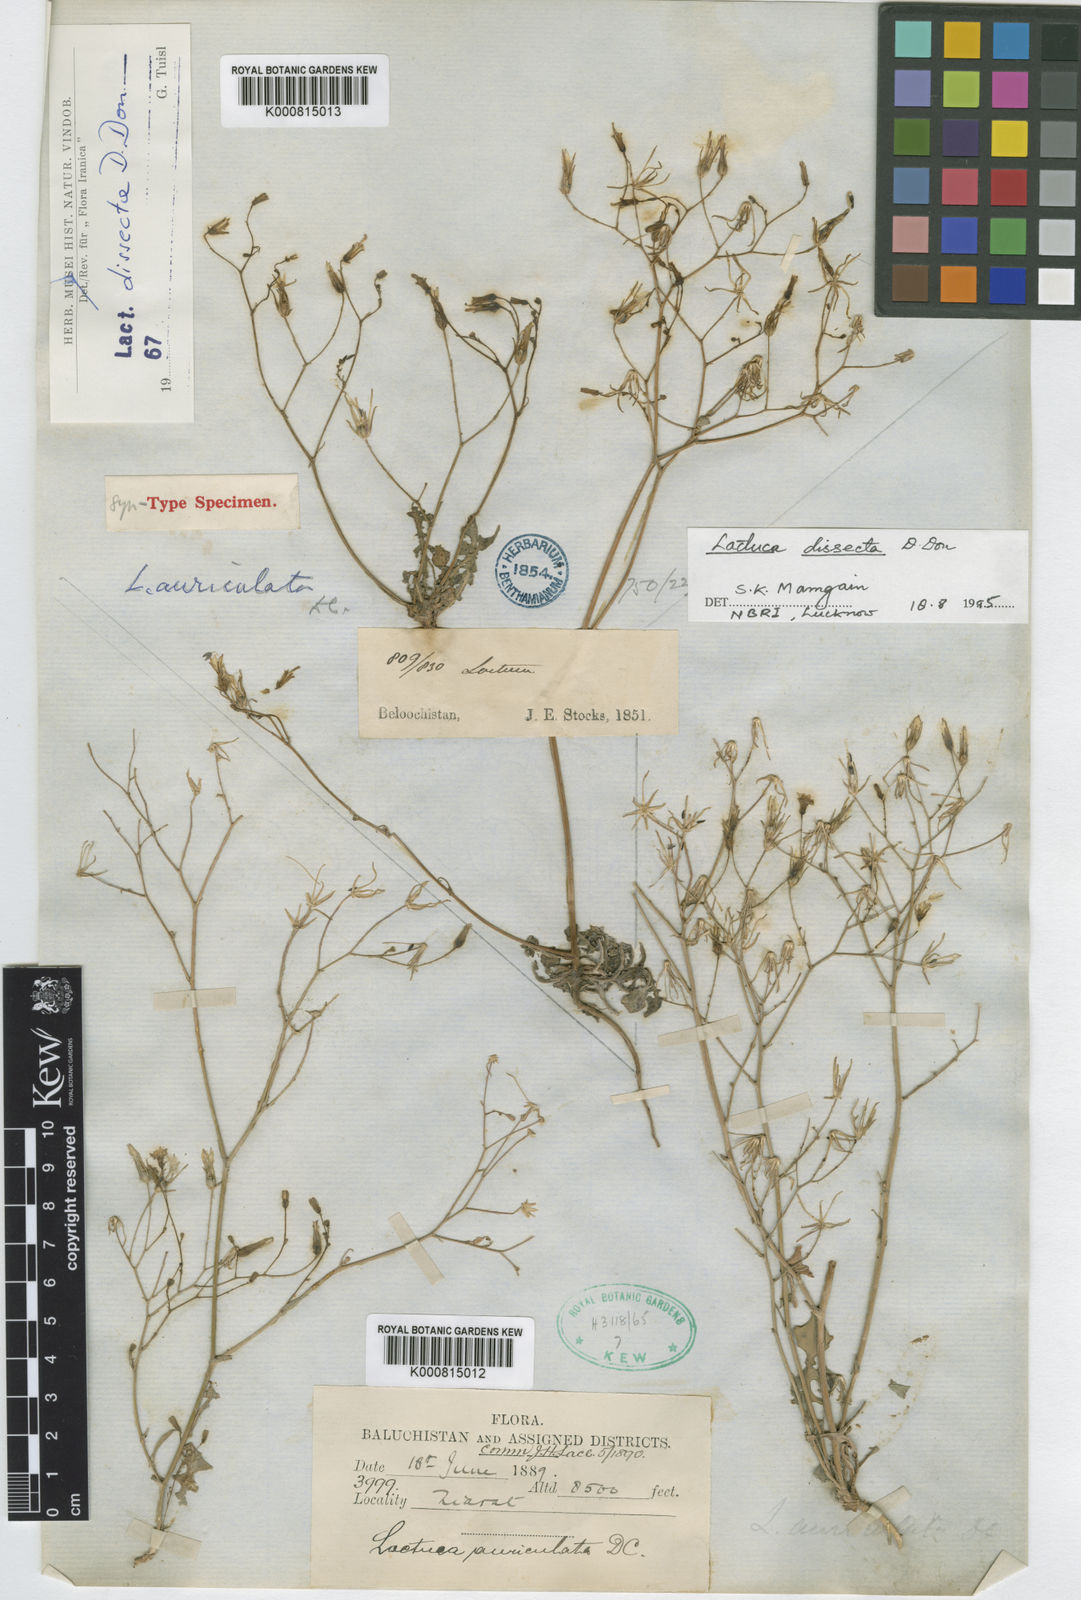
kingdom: Plantae
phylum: Tracheophyta
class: Magnoliopsida
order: Asterales
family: Asteraceae
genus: Lactuca
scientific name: Lactuca dissecta
